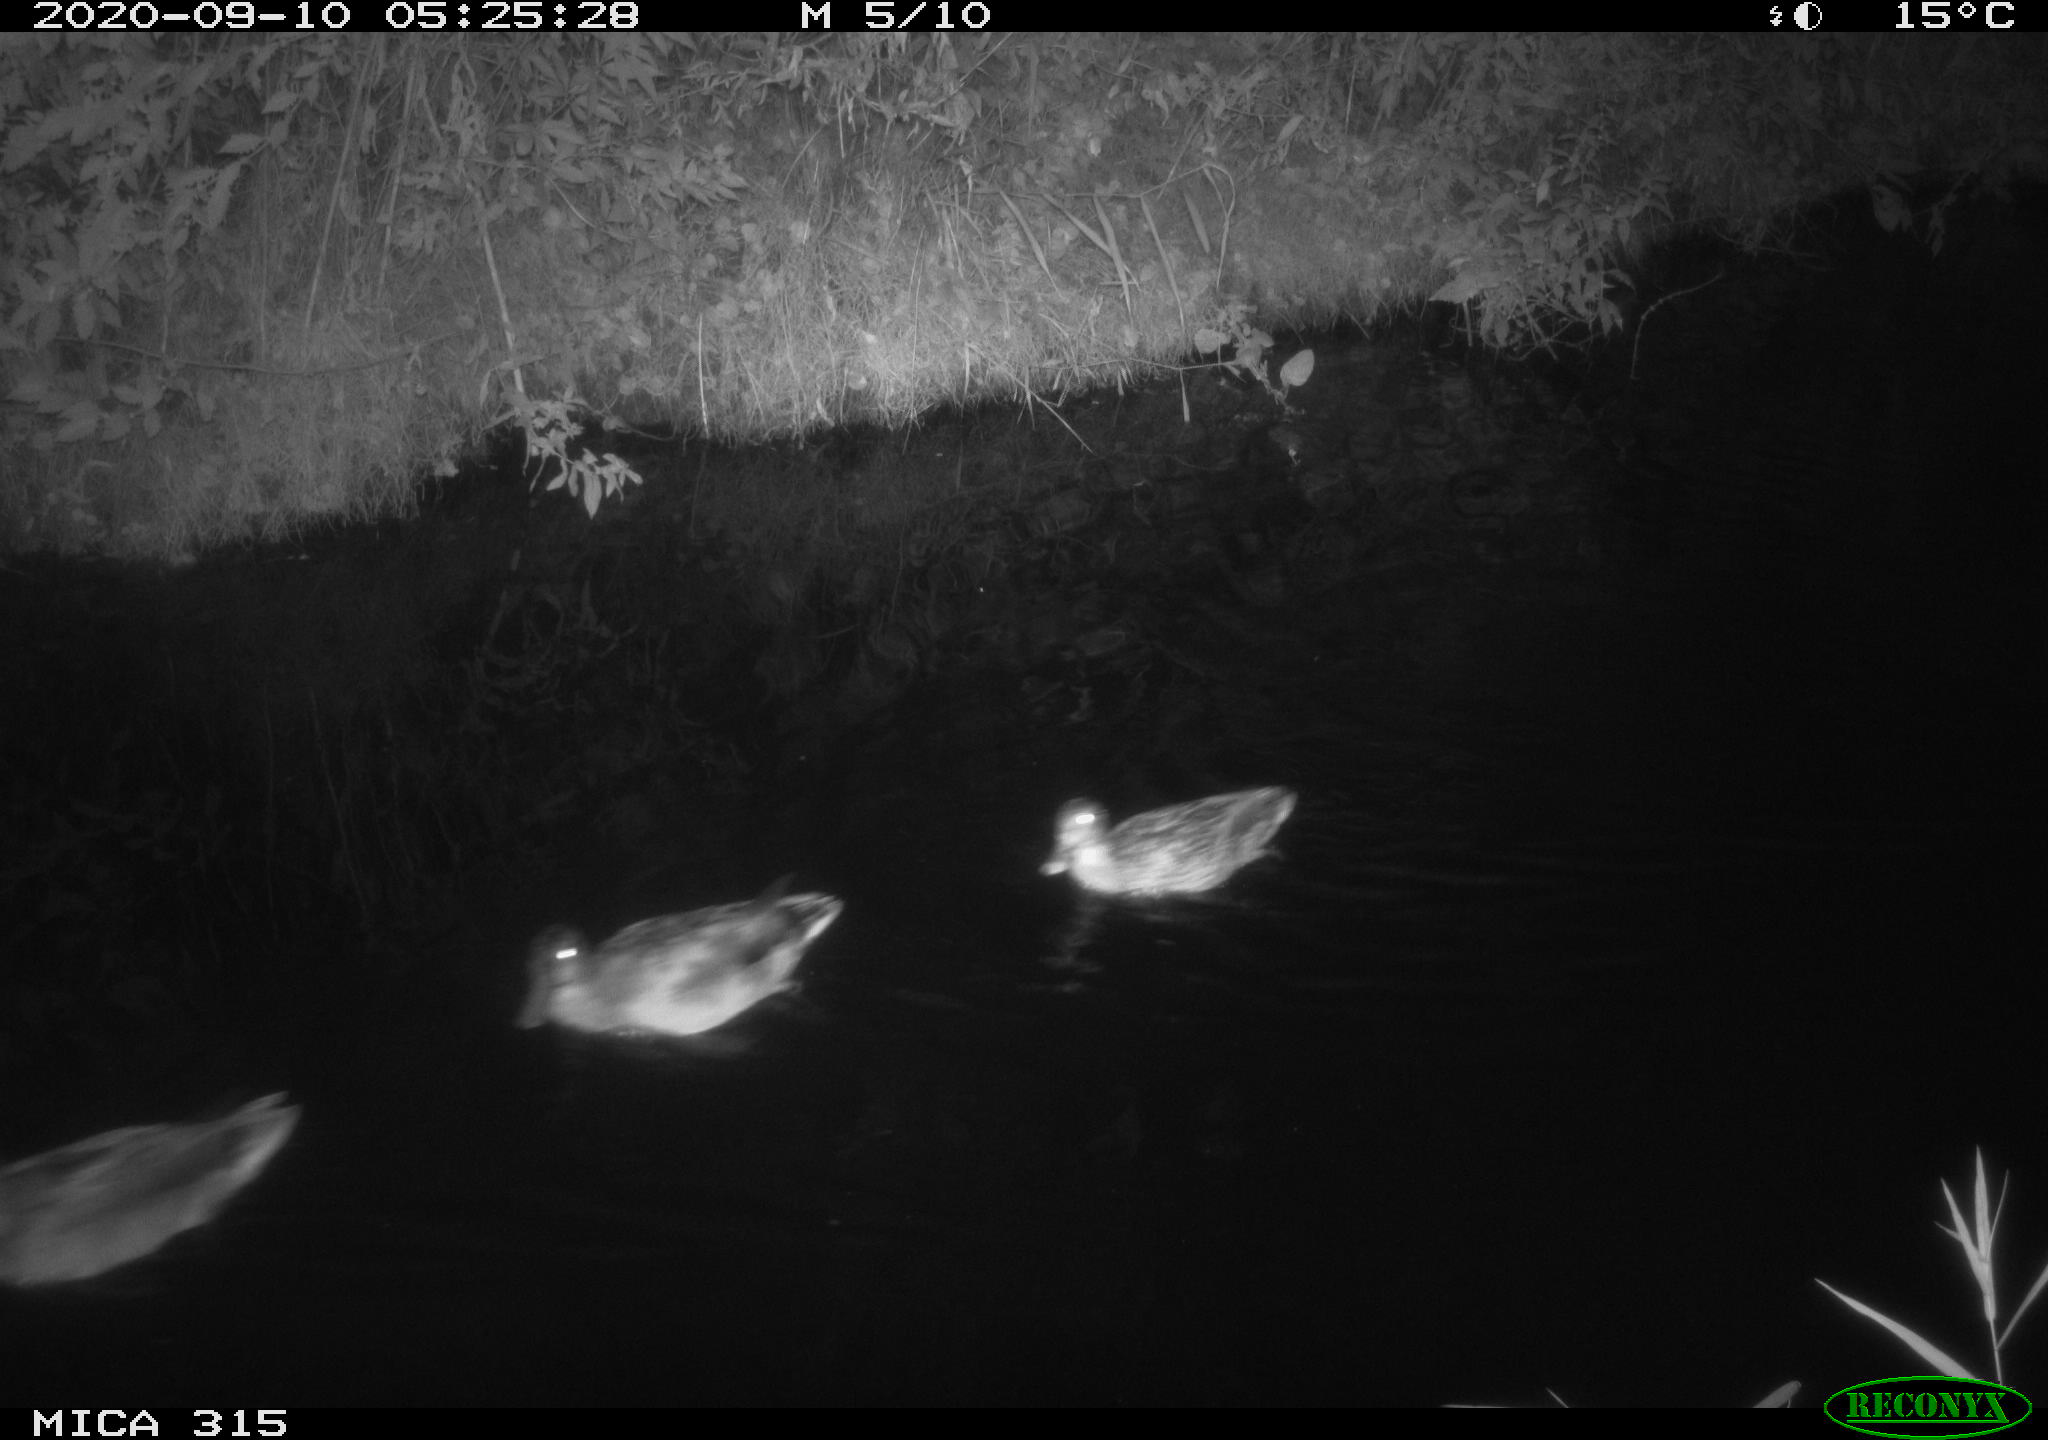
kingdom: Animalia
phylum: Chordata
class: Aves
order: Anseriformes
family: Anatidae
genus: Anas
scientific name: Anas platyrhynchos
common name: Mallard
